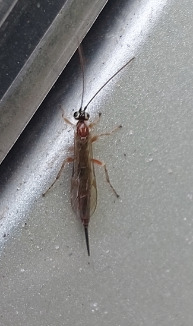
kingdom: Animalia
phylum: Arthropoda
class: Insecta
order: Hymenoptera
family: Ichneumonidae
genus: Tromatobia
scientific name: Tromatobia lineatoria
